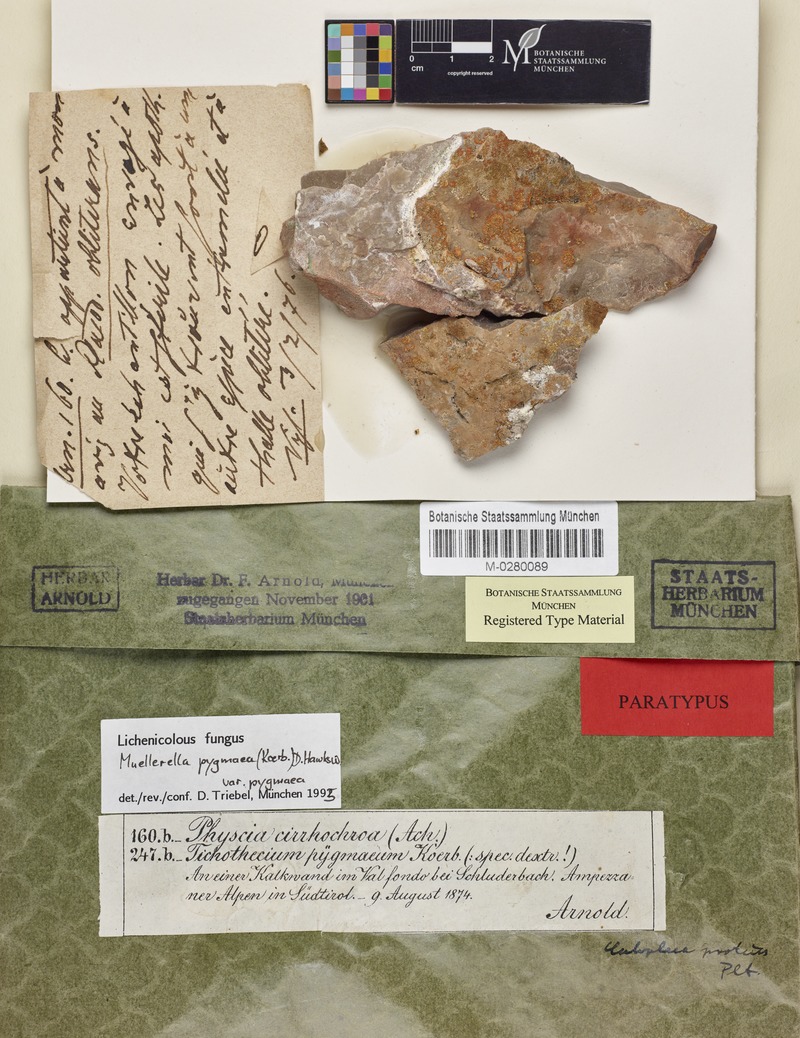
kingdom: Fungi
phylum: Ascomycota
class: Lecanoromycetes
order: Teloschistales
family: Teloschistaceae
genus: Leproplaca
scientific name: Leproplaca proteus
